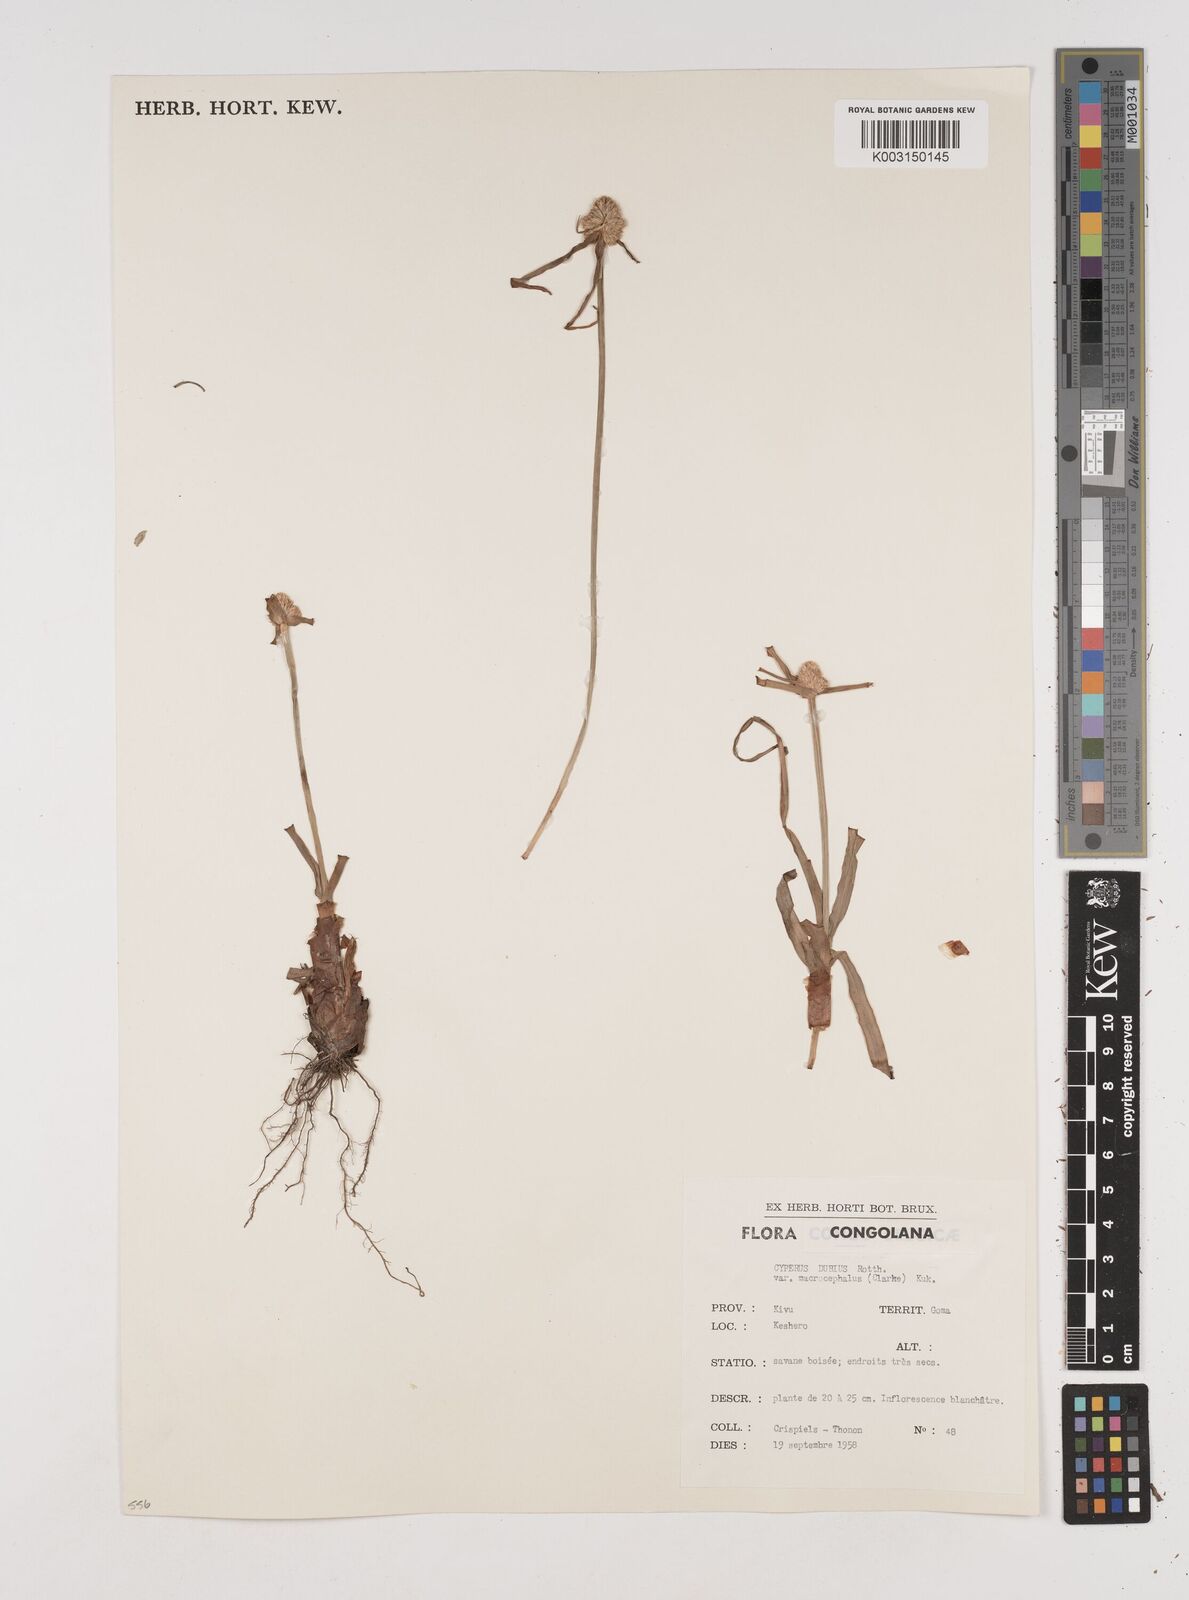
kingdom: Plantae
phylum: Tracheophyta
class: Liliopsida
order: Poales
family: Cyperaceae
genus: Cyperus
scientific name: Cyperus dubius
